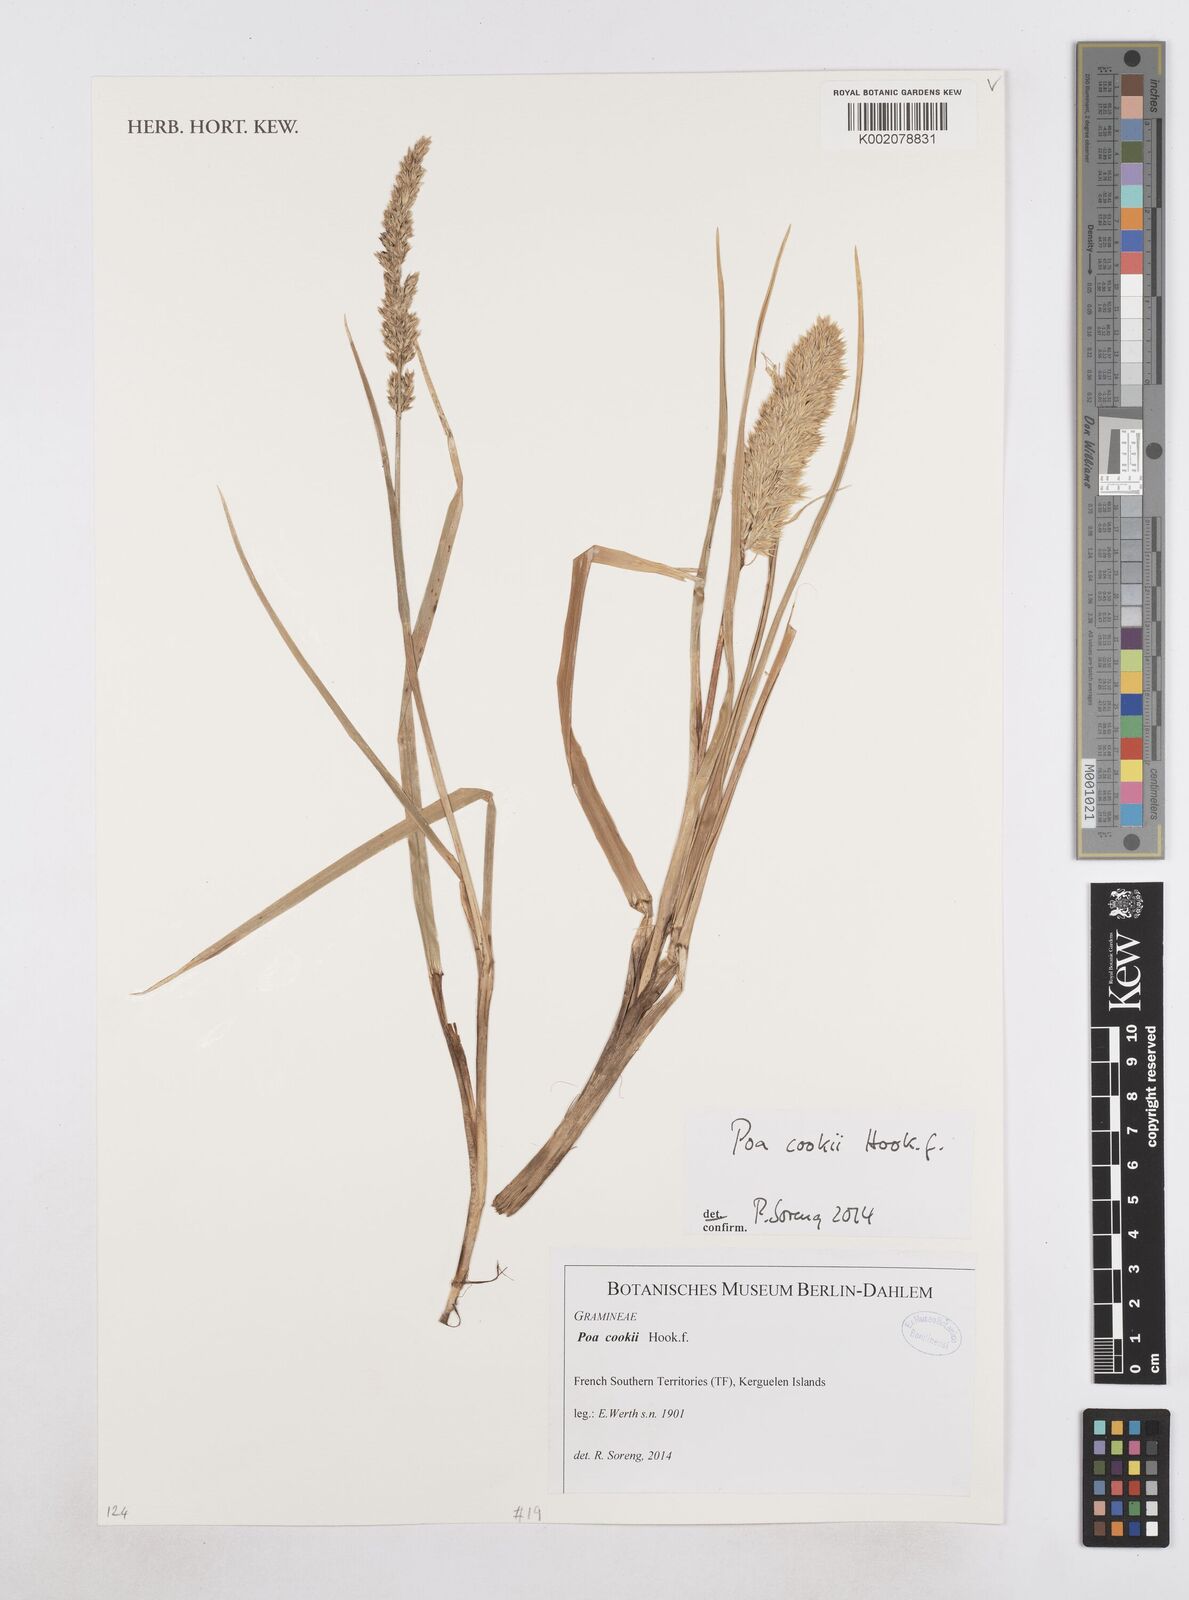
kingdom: Plantae
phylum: Tracheophyta
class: Liliopsida
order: Poales
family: Poaceae
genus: Poa
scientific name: Poa cookii
